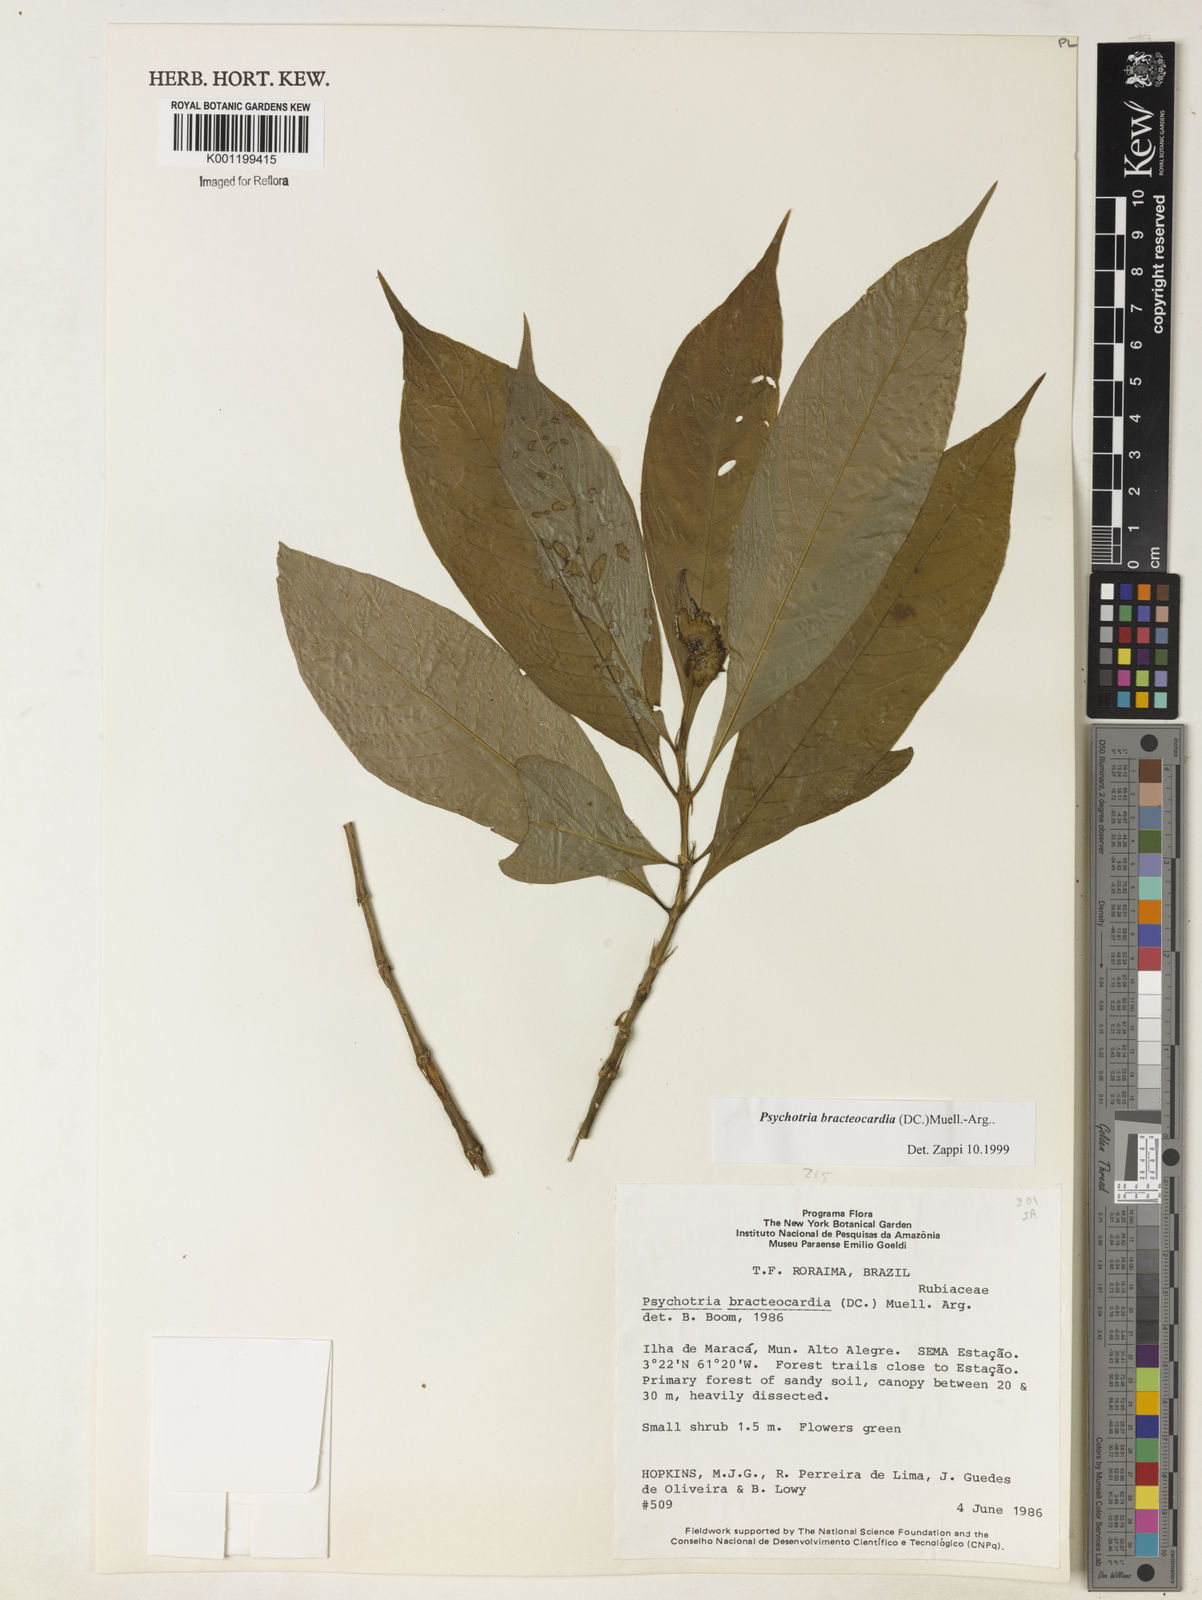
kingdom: Plantae
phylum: Tracheophyta
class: Magnoliopsida
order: Gentianales
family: Rubiaceae
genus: Psychotria
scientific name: Psychotria
